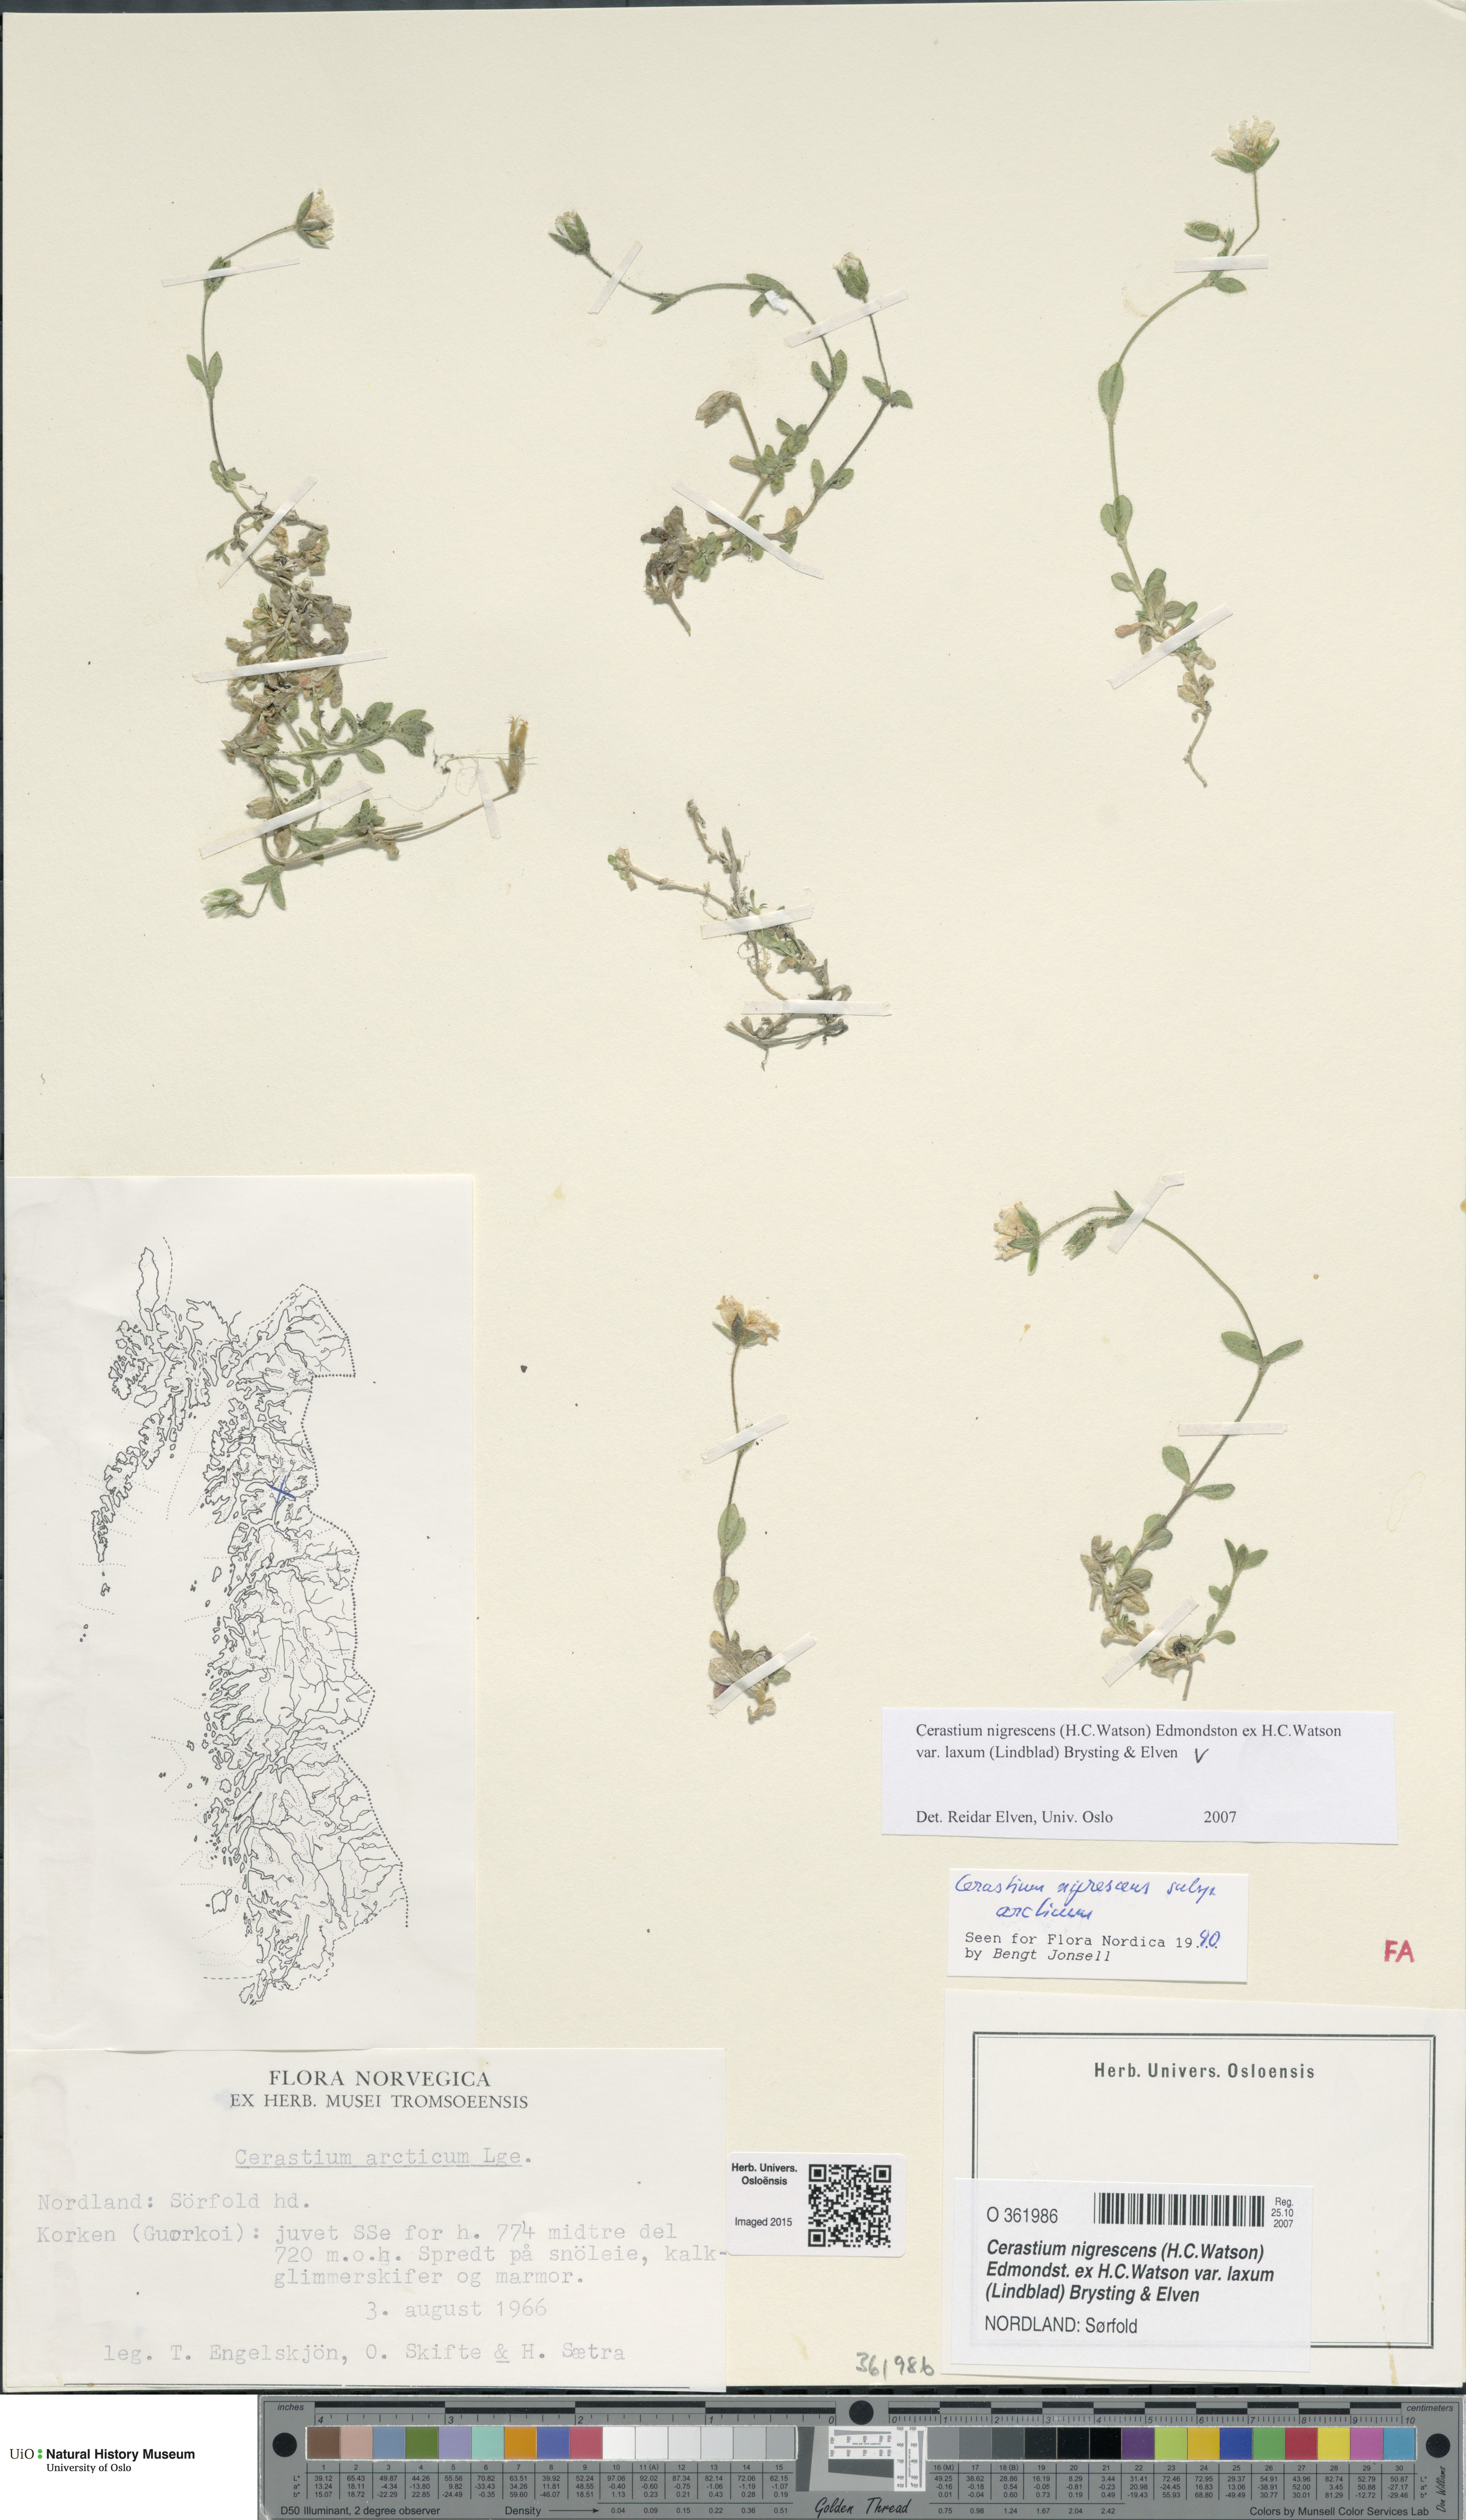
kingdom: Plantae
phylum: Tracheophyta
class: Magnoliopsida
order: Caryophyllales
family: Caryophyllaceae
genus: Cerastium
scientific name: Cerastium nigrescens
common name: Shetland mouse-ear
